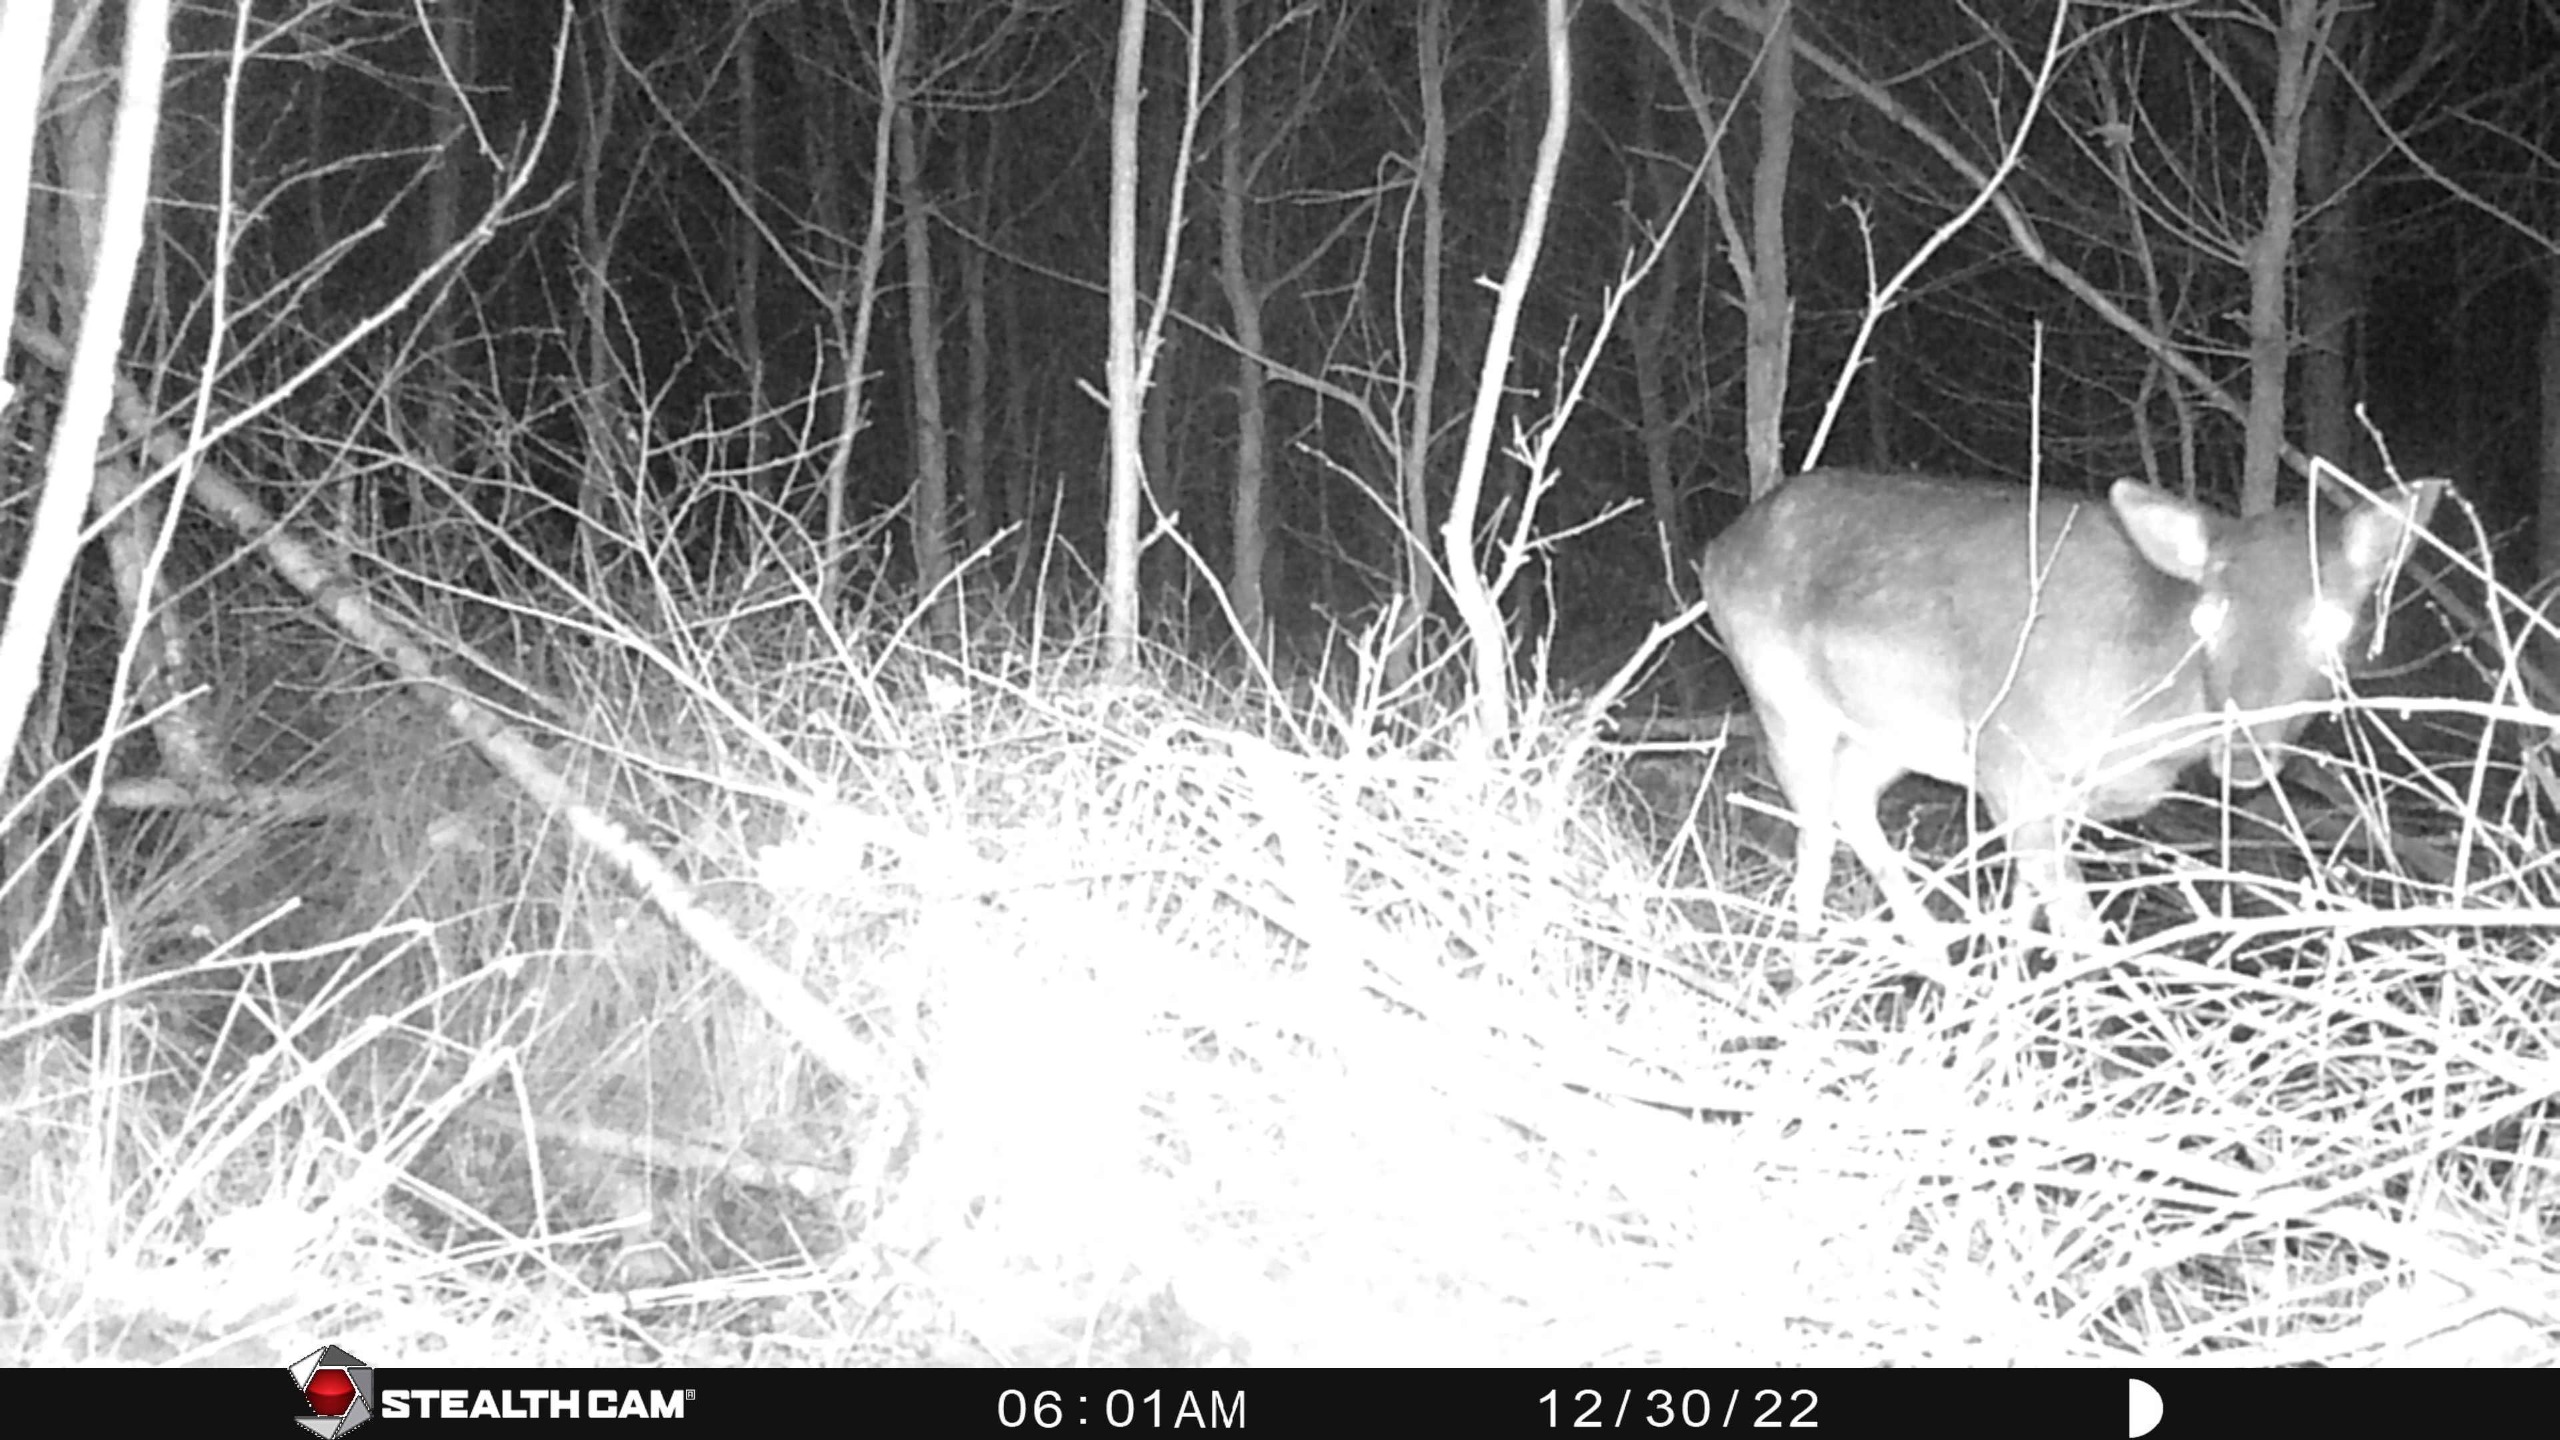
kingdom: Animalia
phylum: Chordata
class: Mammalia
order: Artiodactyla
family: Cervidae
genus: Dama
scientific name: Dama dama
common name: Dådyr
